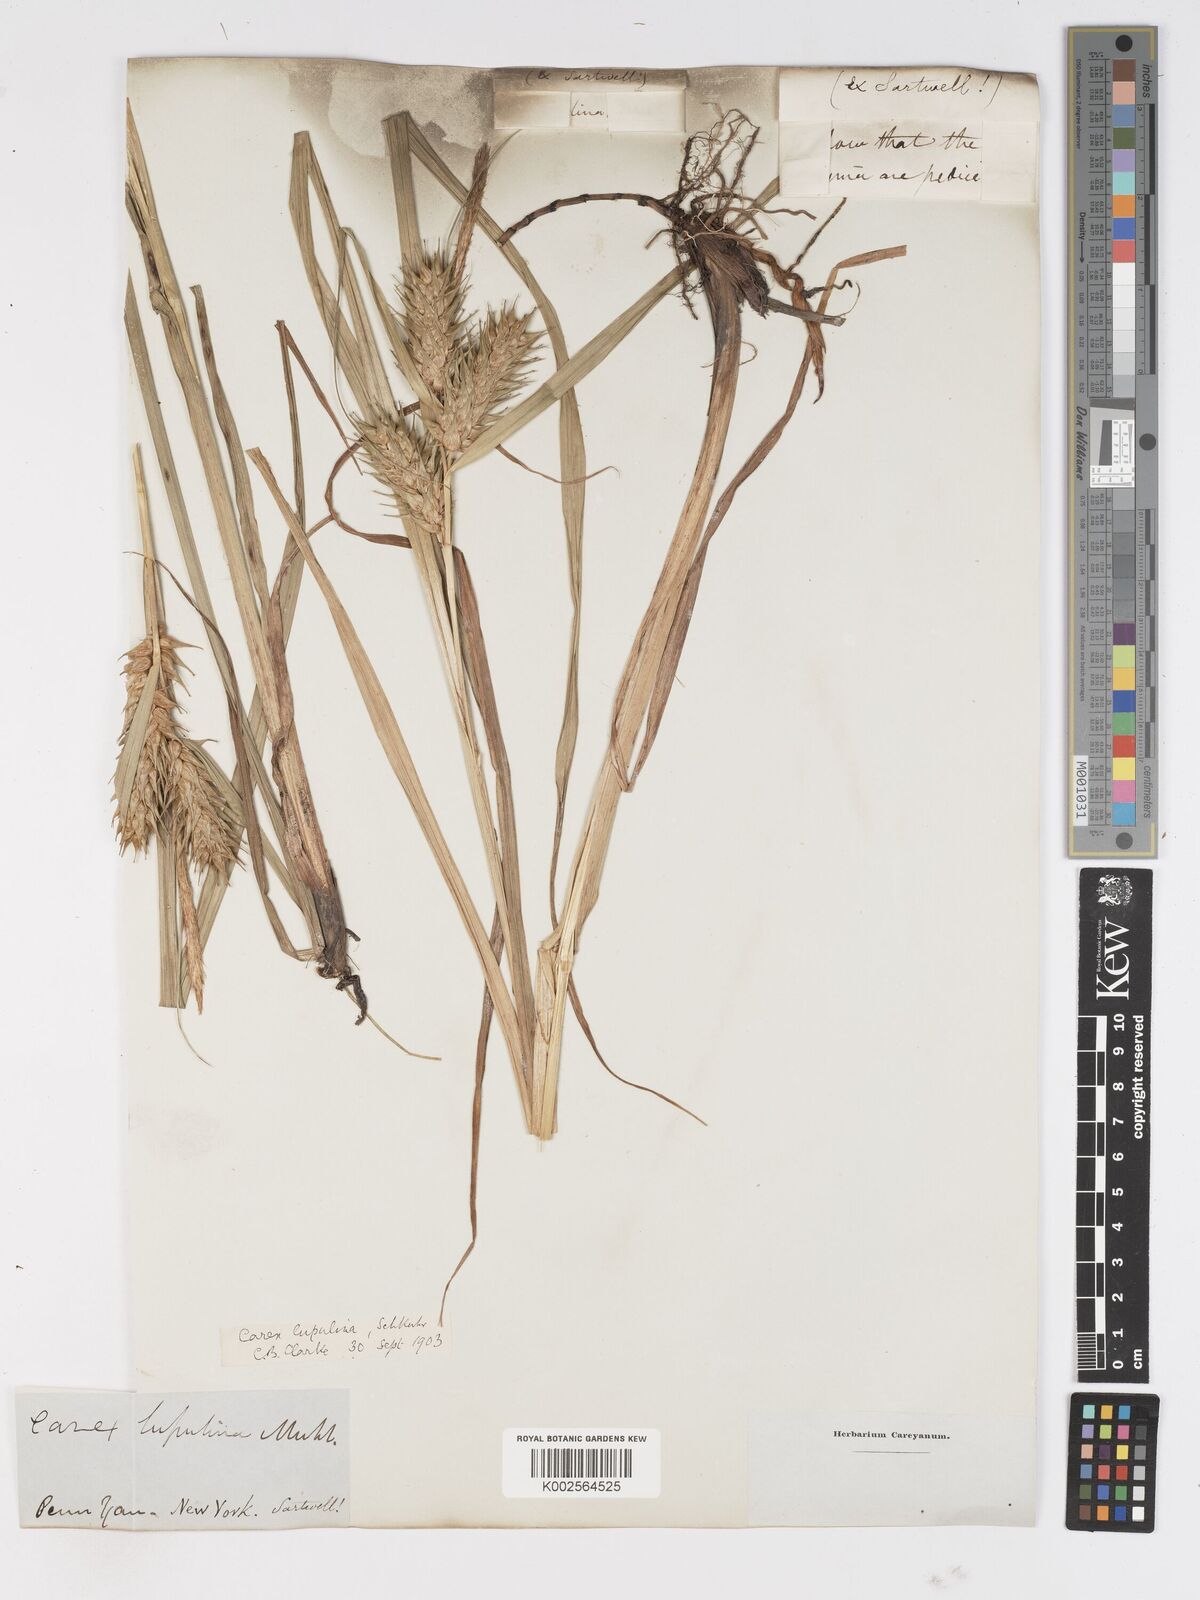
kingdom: Plantae
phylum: Tracheophyta
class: Liliopsida
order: Poales
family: Cyperaceae
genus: Carex
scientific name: Carex lupulina
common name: Hop sedge
